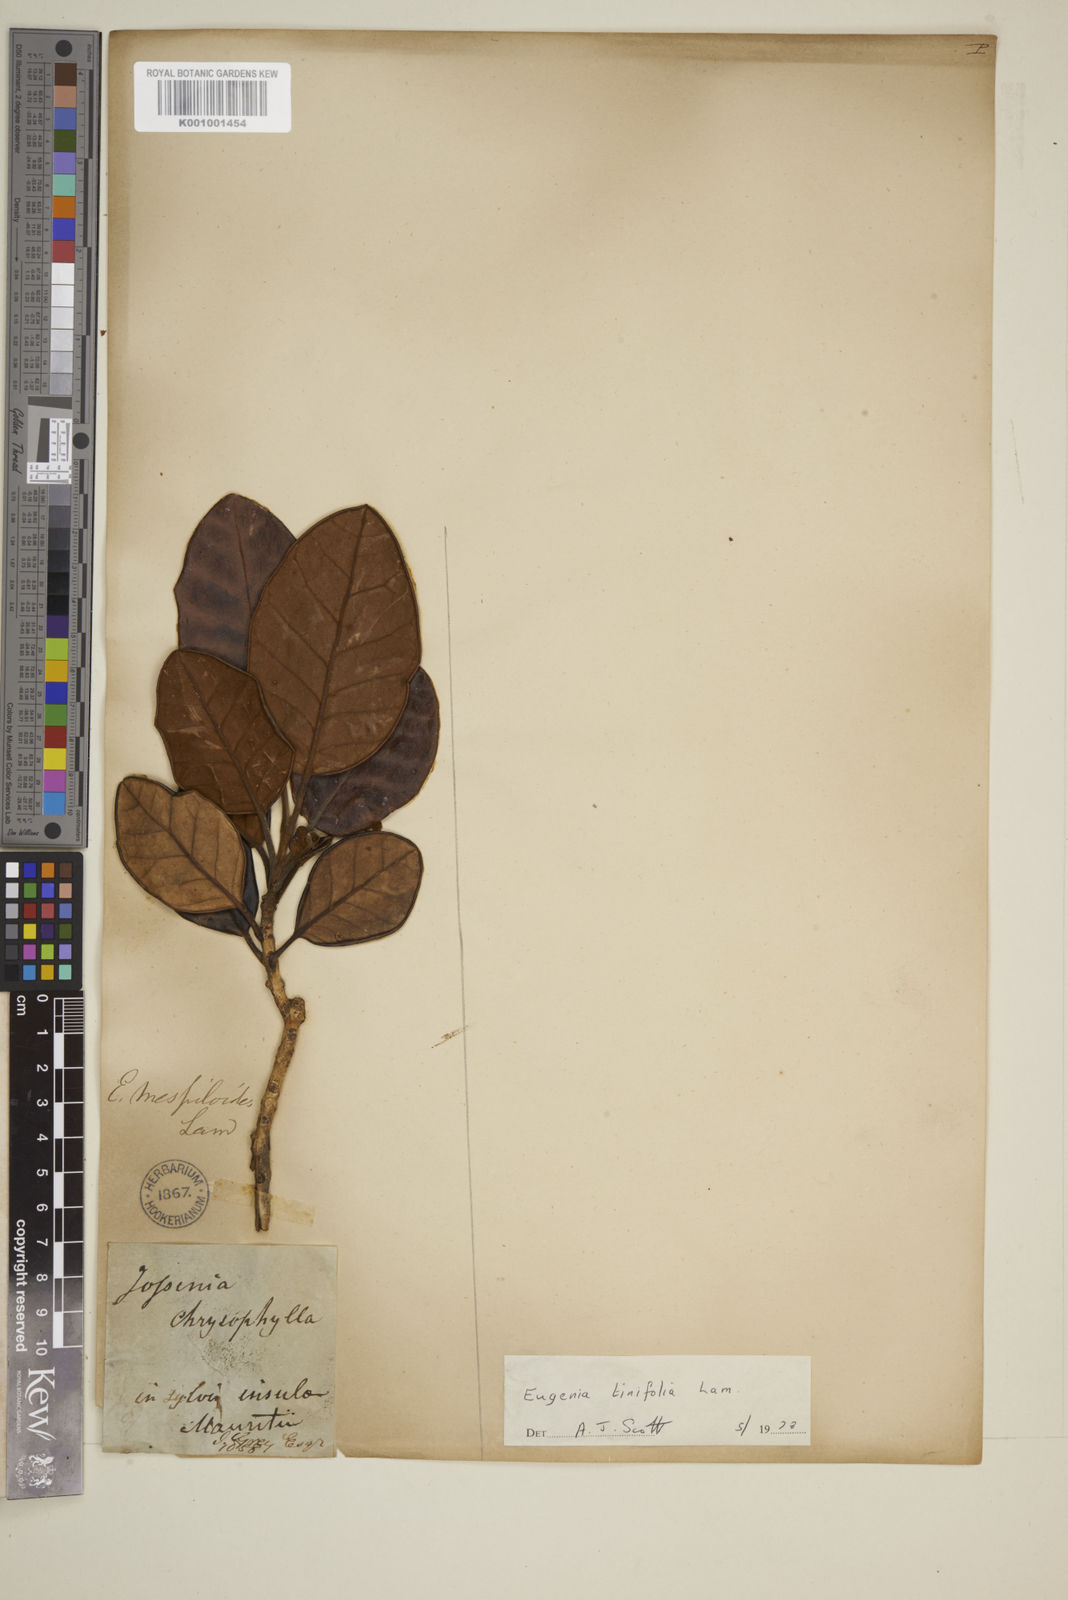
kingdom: Plantae
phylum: Tracheophyta
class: Magnoliopsida
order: Myrtales
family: Myrtaceae
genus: Eugenia
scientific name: Eugenia tinifolia
